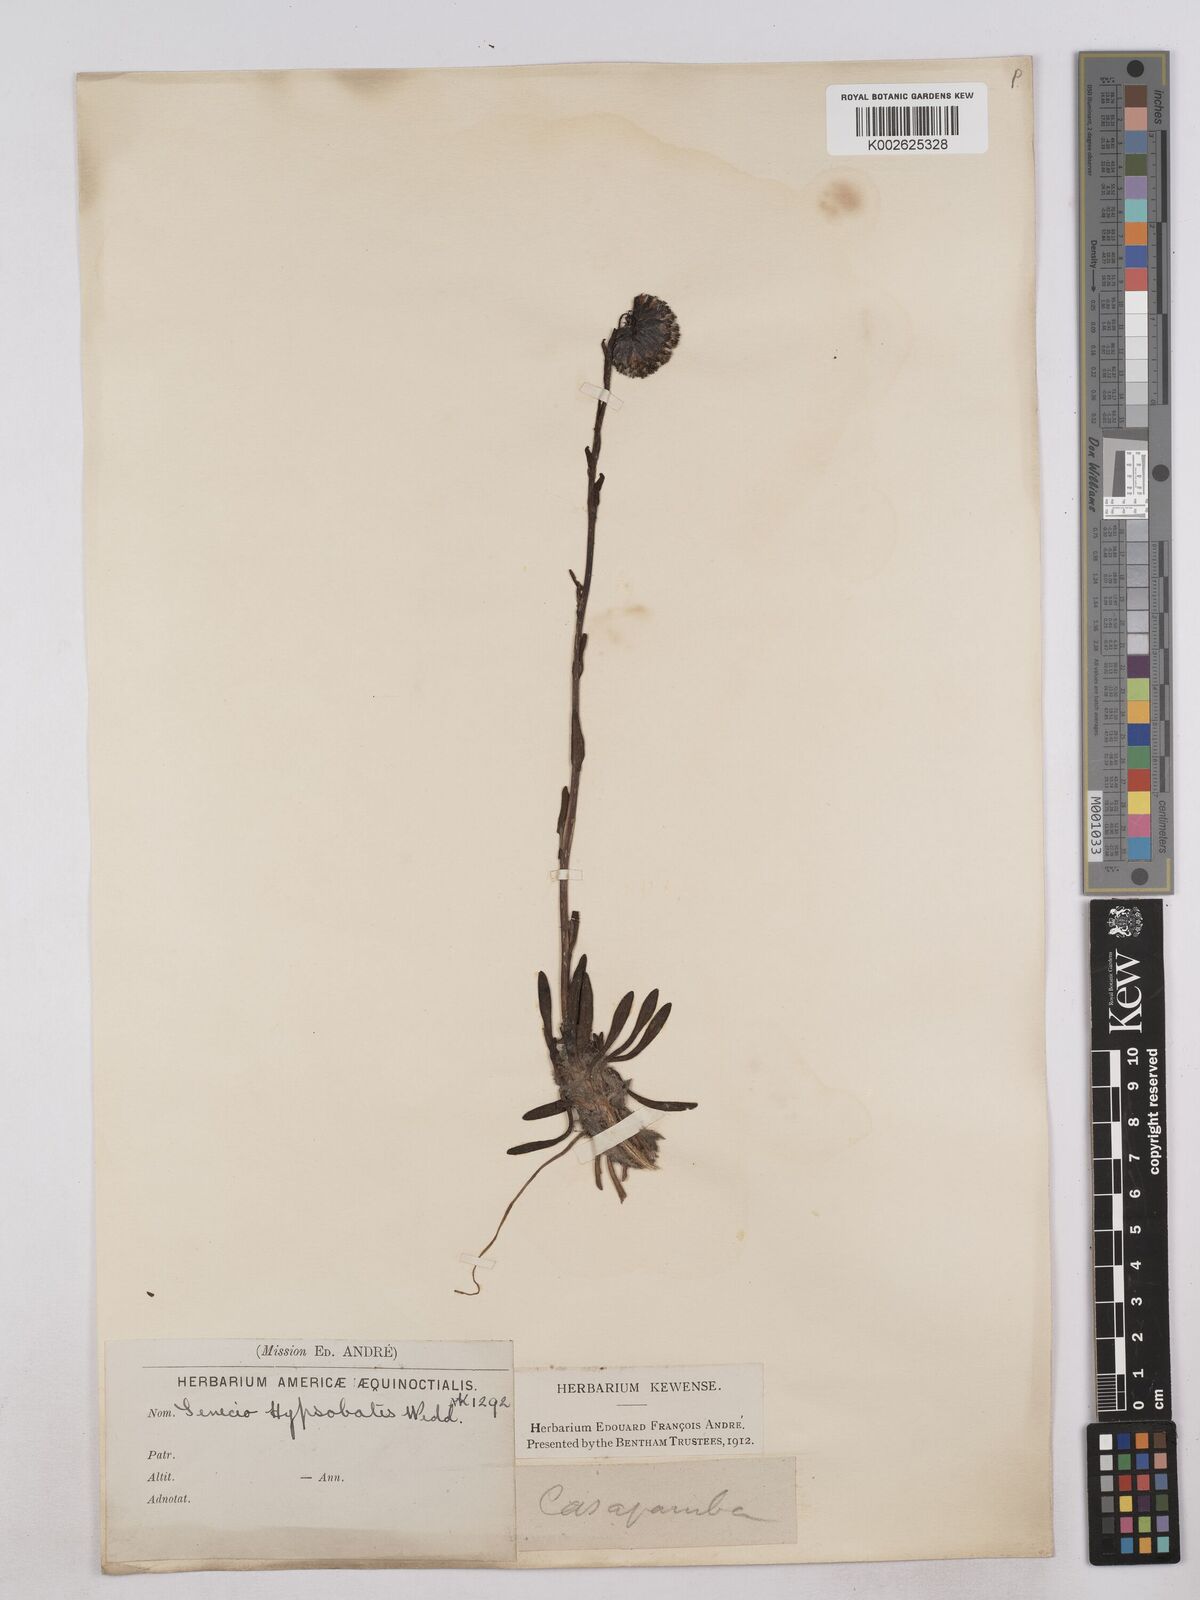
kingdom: Plantae
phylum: Tracheophyta
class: Magnoliopsida
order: Asterales
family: Asteraceae
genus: Senecio
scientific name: Senecio hypsobates
